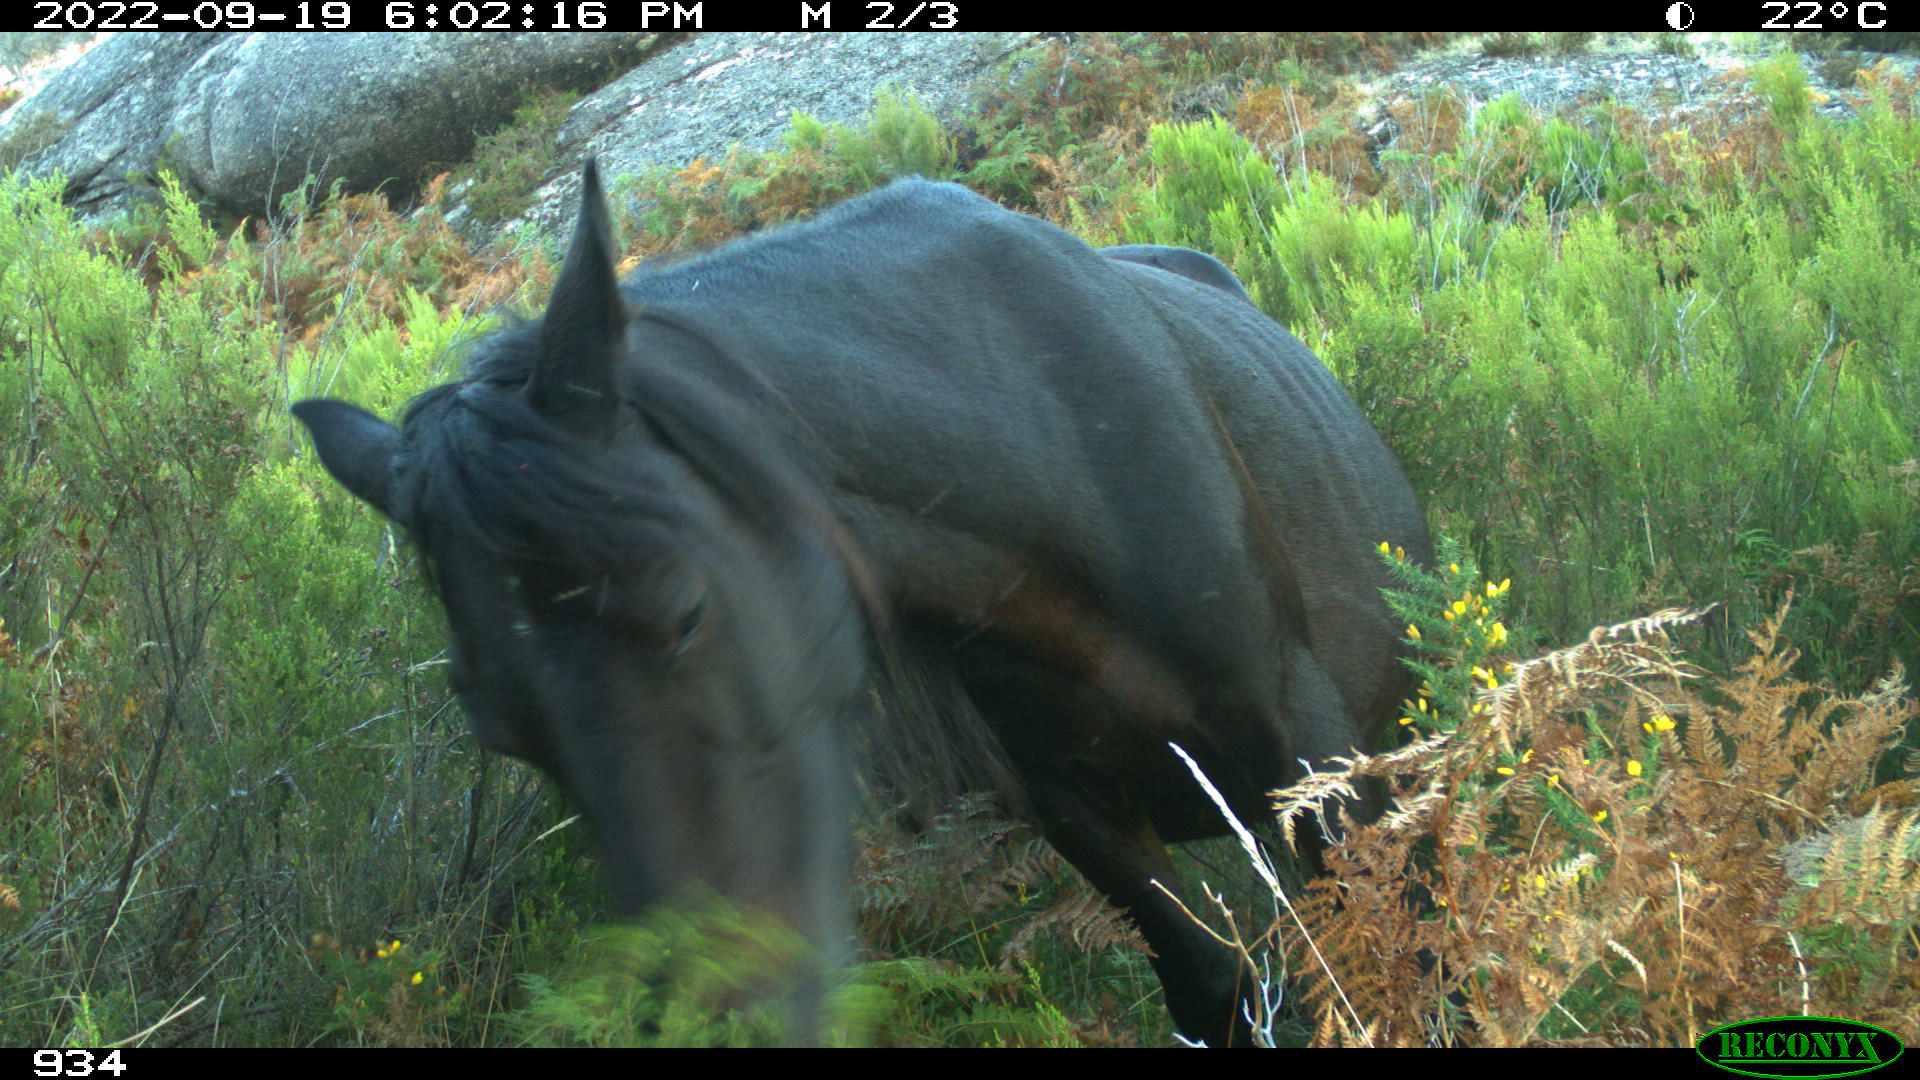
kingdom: Animalia
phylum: Chordata
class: Mammalia
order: Perissodactyla
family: Equidae
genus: Equus
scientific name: Equus caballus
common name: Horse
